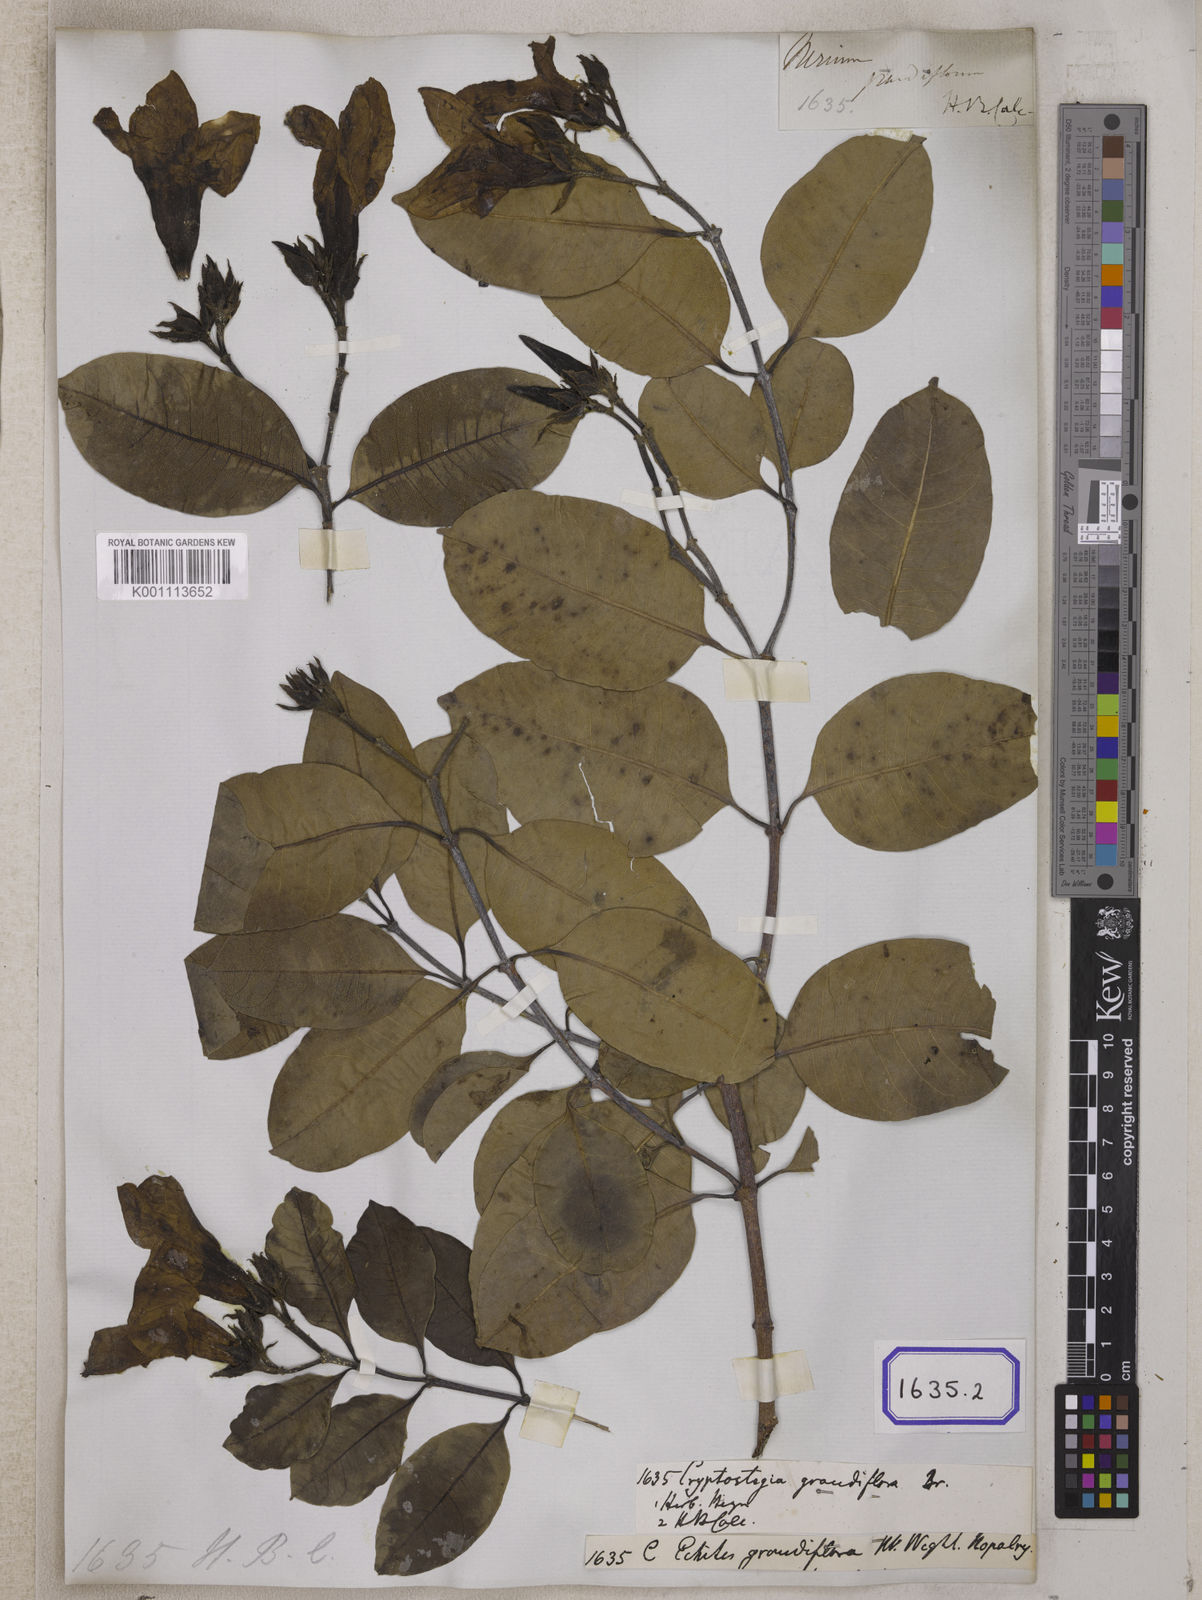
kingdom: Plantae
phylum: Tracheophyta
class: Magnoliopsida
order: Gentianales
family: Apocynaceae
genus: Cryptostegia
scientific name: Cryptostegia grandiflora
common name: Palay rubbervine
